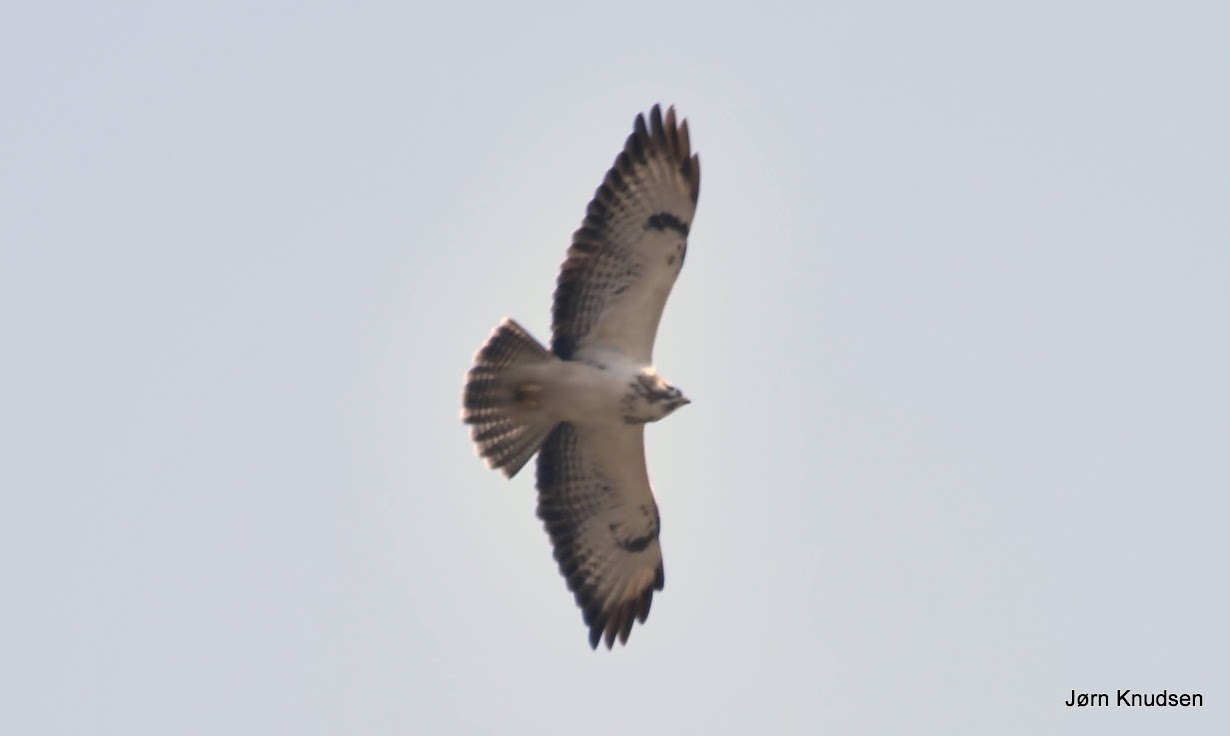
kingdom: Animalia
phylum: Chordata
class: Aves
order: Accipitriformes
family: Accipitridae
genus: Buteo
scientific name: Buteo buteo
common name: Musvåge
